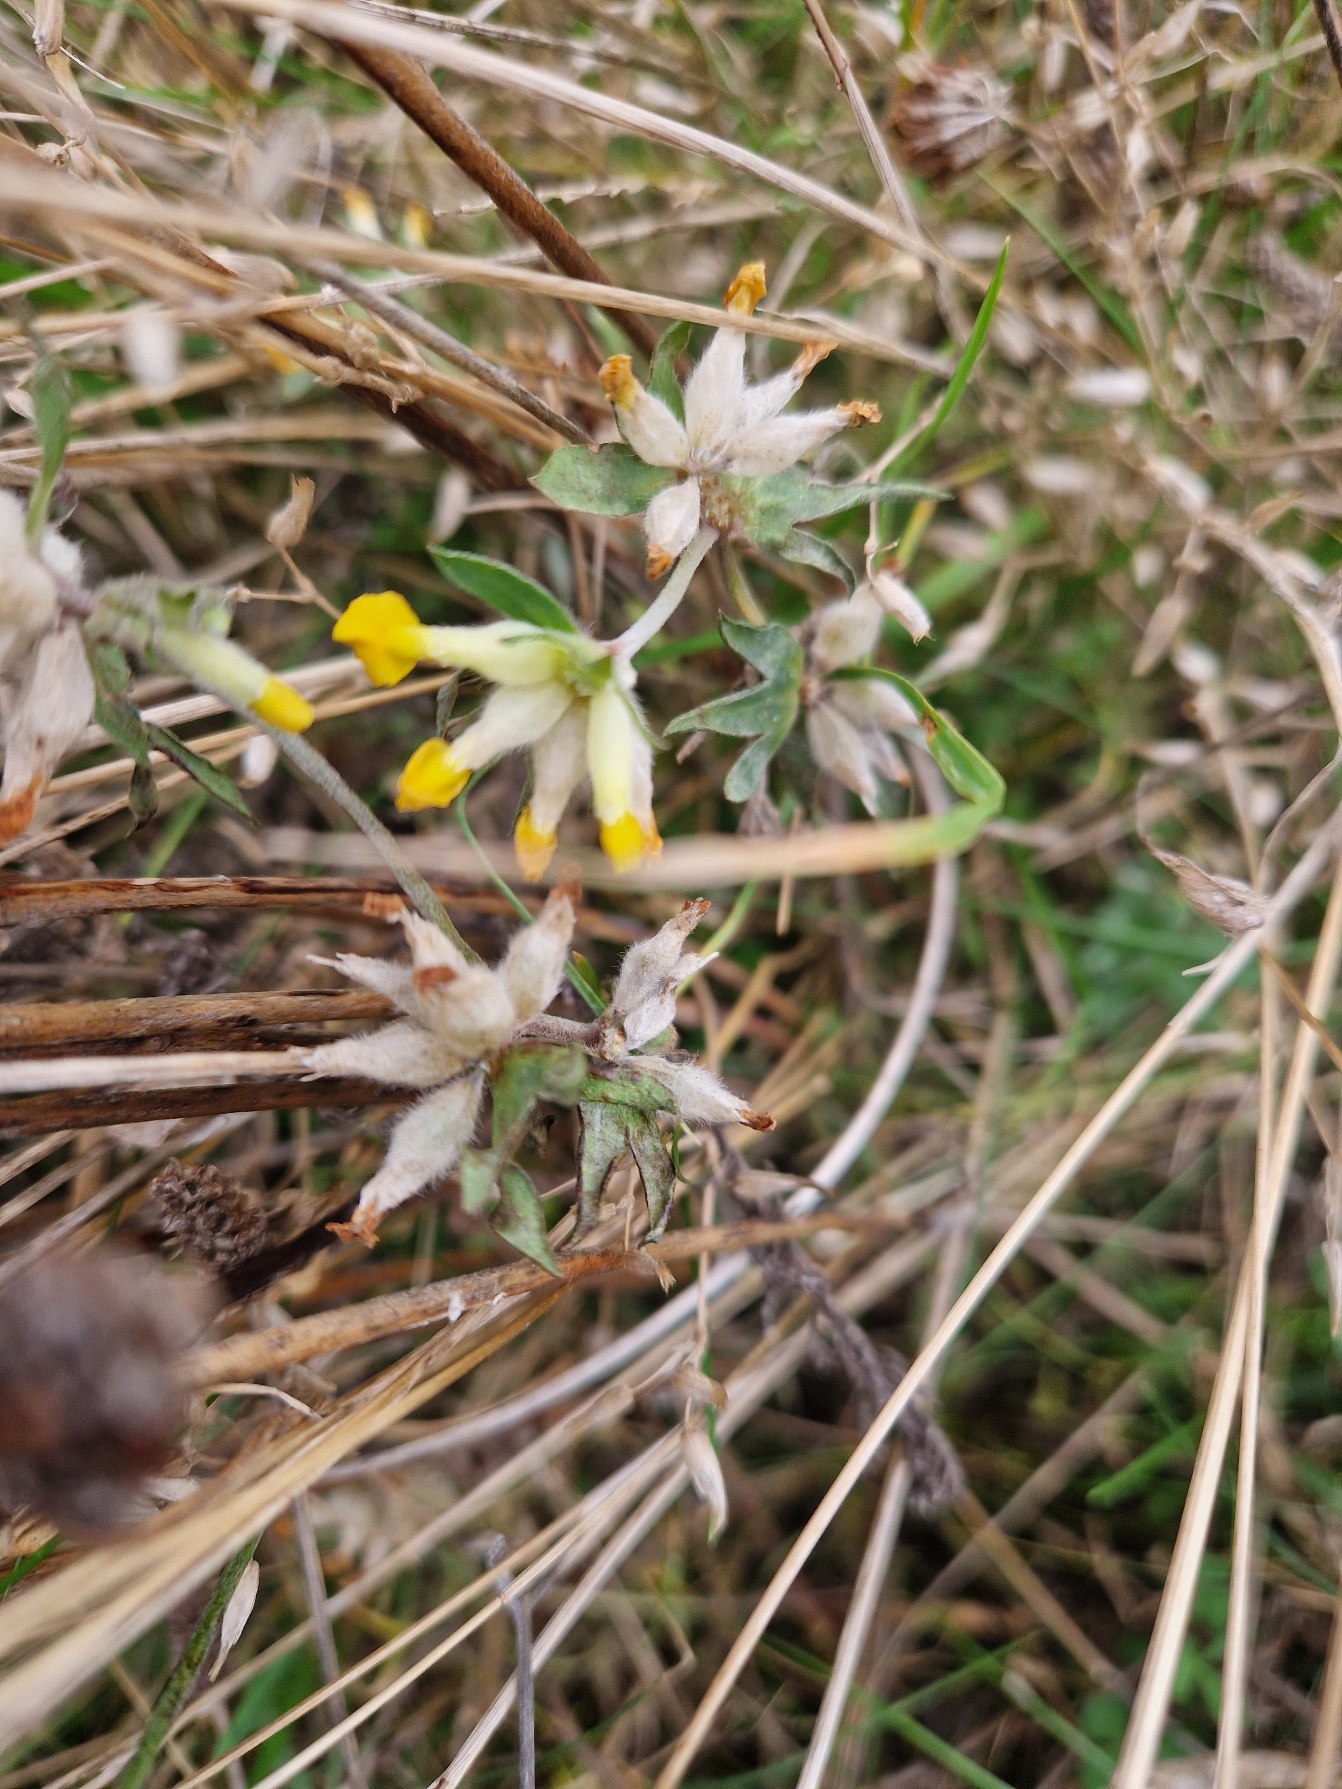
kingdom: Plantae
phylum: Tracheophyta
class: Magnoliopsida
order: Fabales
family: Fabaceae
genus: Anthyllis
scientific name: Anthyllis vulneraria
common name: Rundbælg
